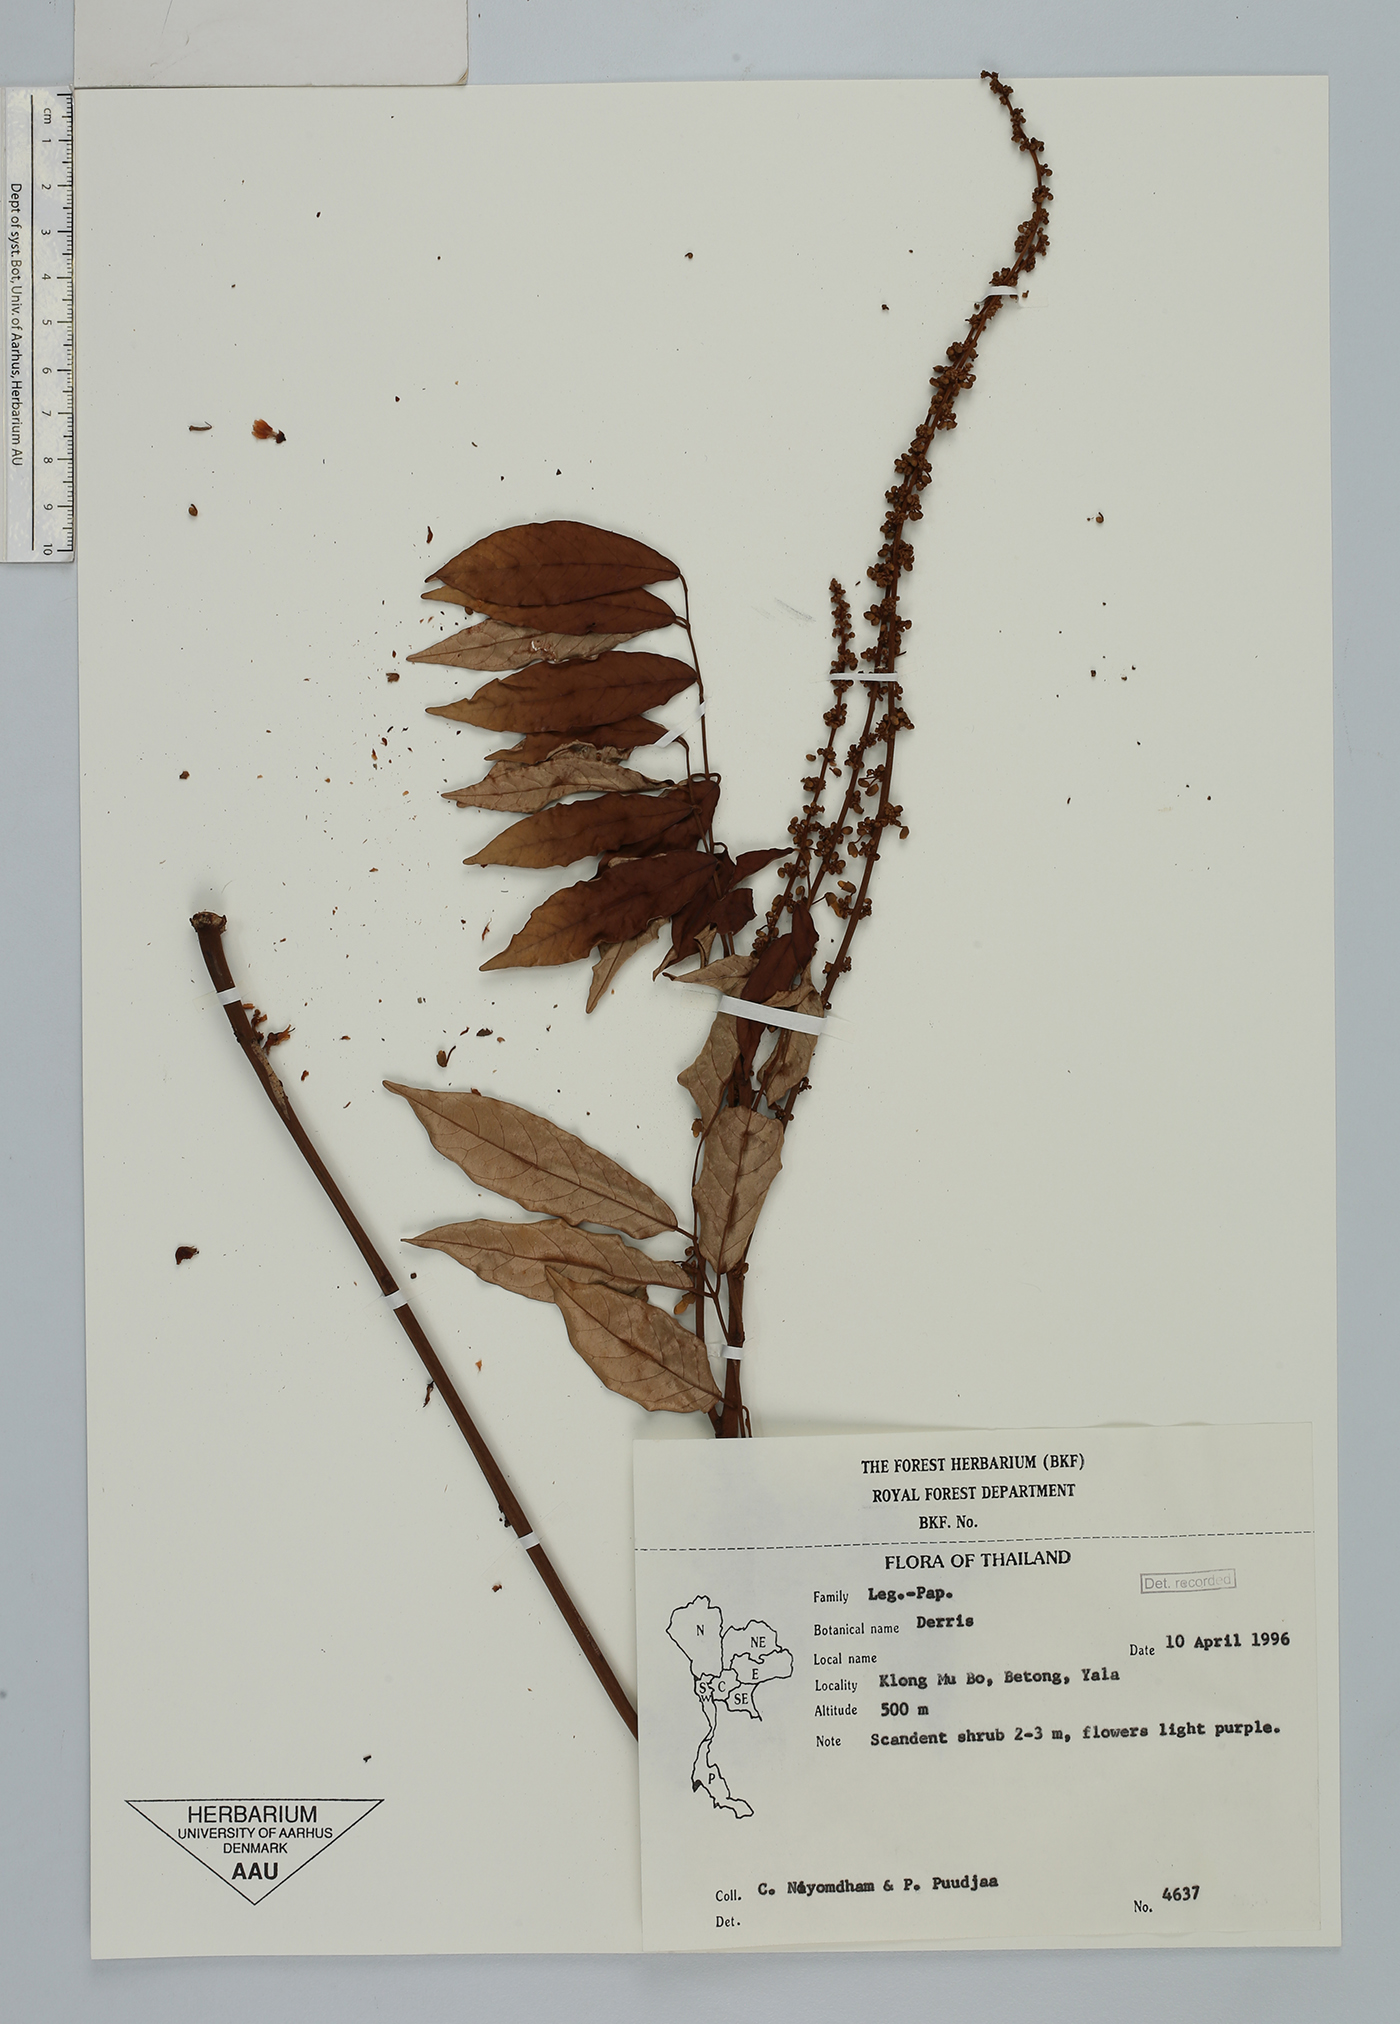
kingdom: Plantae
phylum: Tracheophyta
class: Magnoliopsida
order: Fabales
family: Fabaceae
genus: Derris
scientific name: Derris
